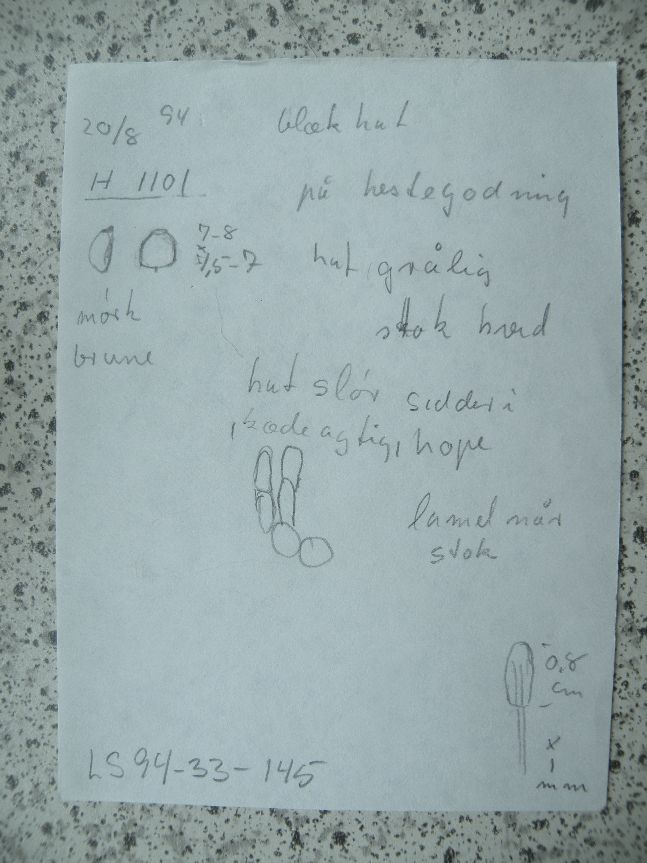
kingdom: Fungi
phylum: Basidiomycota
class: Agaricomycetes
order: Agaricales
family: Psathyrellaceae
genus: Coprinopsis
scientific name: Coprinopsis
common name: blækhat
